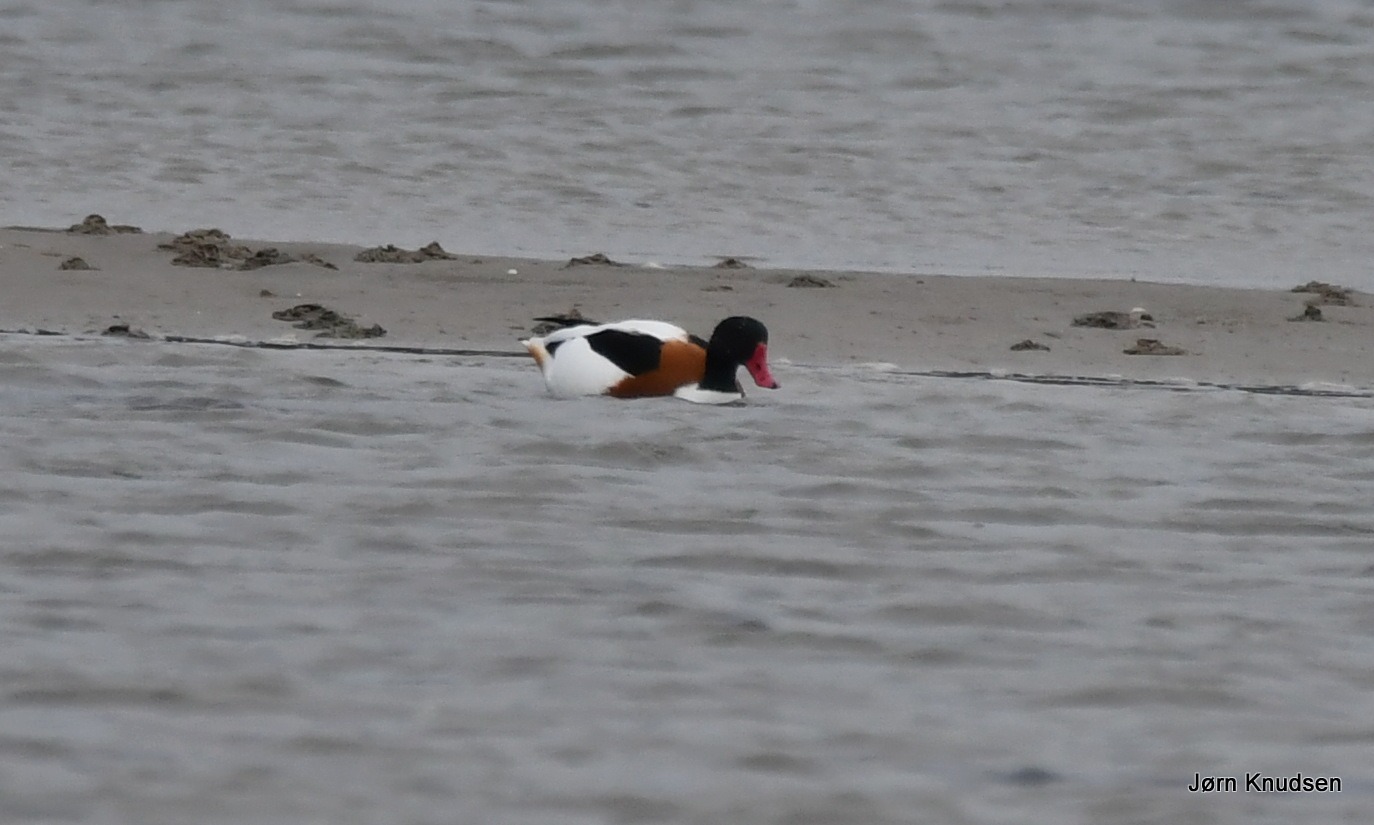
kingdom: Animalia
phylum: Chordata
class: Aves
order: Anseriformes
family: Anatidae
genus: Tadorna
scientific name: Tadorna tadorna
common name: Gravand
